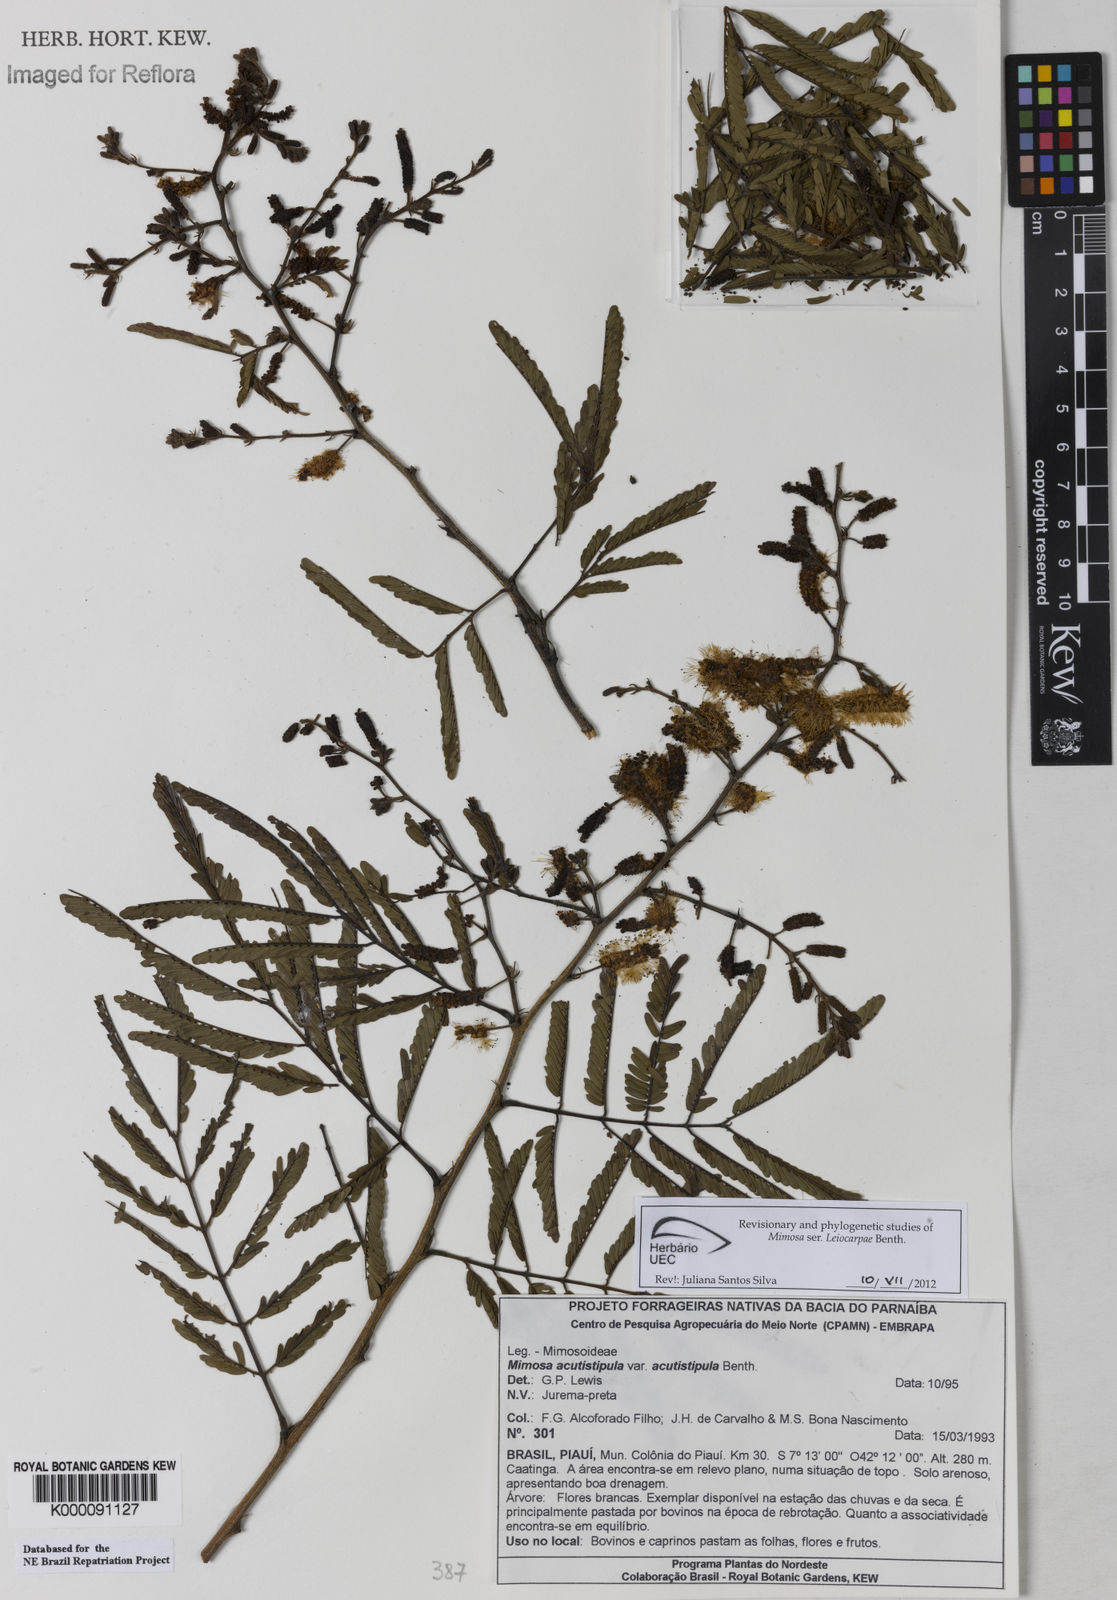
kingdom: Plantae
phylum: Tracheophyta
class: Magnoliopsida
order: Fabales
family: Fabaceae
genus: Mimosa
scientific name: Mimosa acutistipula
